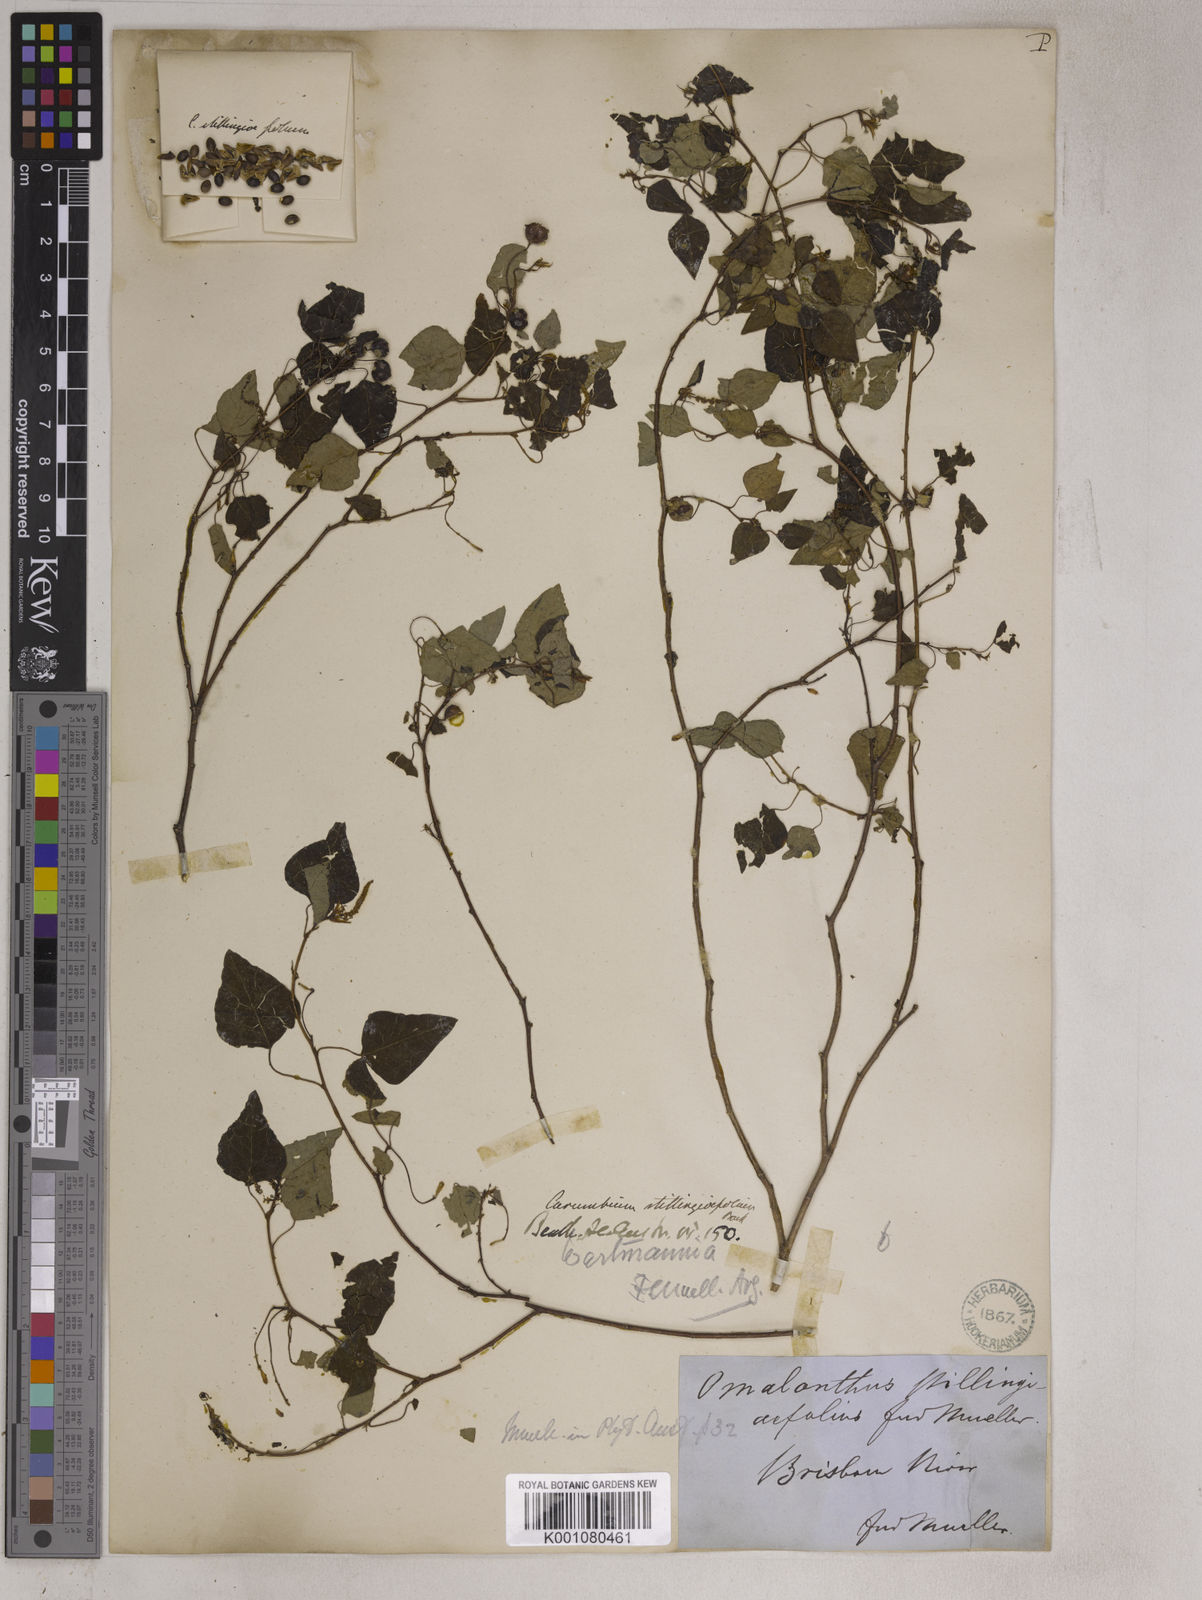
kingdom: Plantae
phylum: Tracheophyta
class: Magnoliopsida
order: Malpighiales
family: Euphorbiaceae
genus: Homalanthus
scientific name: Homalanthus stillingifolius
